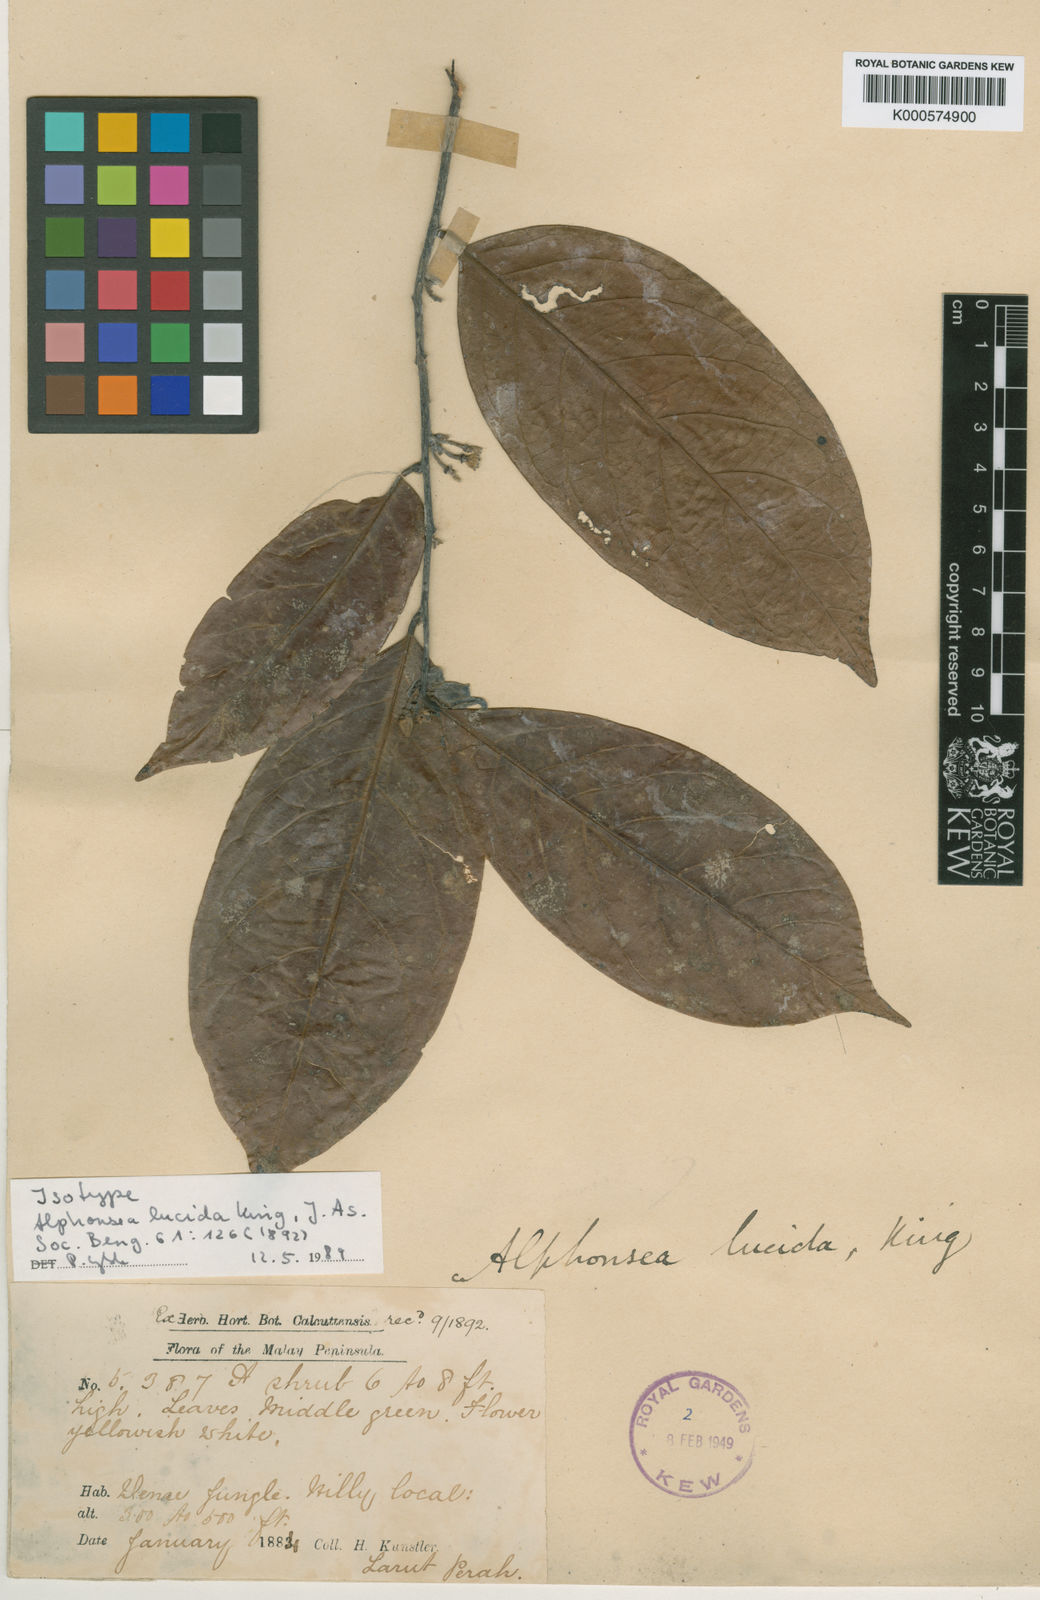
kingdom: Plantae
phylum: Tracheophyta
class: Magnoliopsida
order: Magnoliales
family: Annonaceae
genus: Alphonsea
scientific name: Alphonsea lucida
